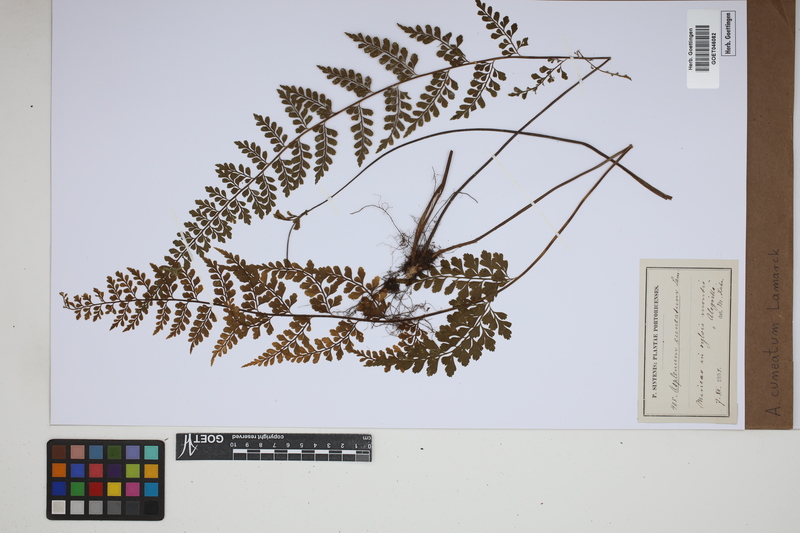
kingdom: Plantae
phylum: Tracheophyta
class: Polypodiopsida
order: Polypodiales
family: Aspleniaceae
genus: Asplenium
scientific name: Asplenium cuneatum
